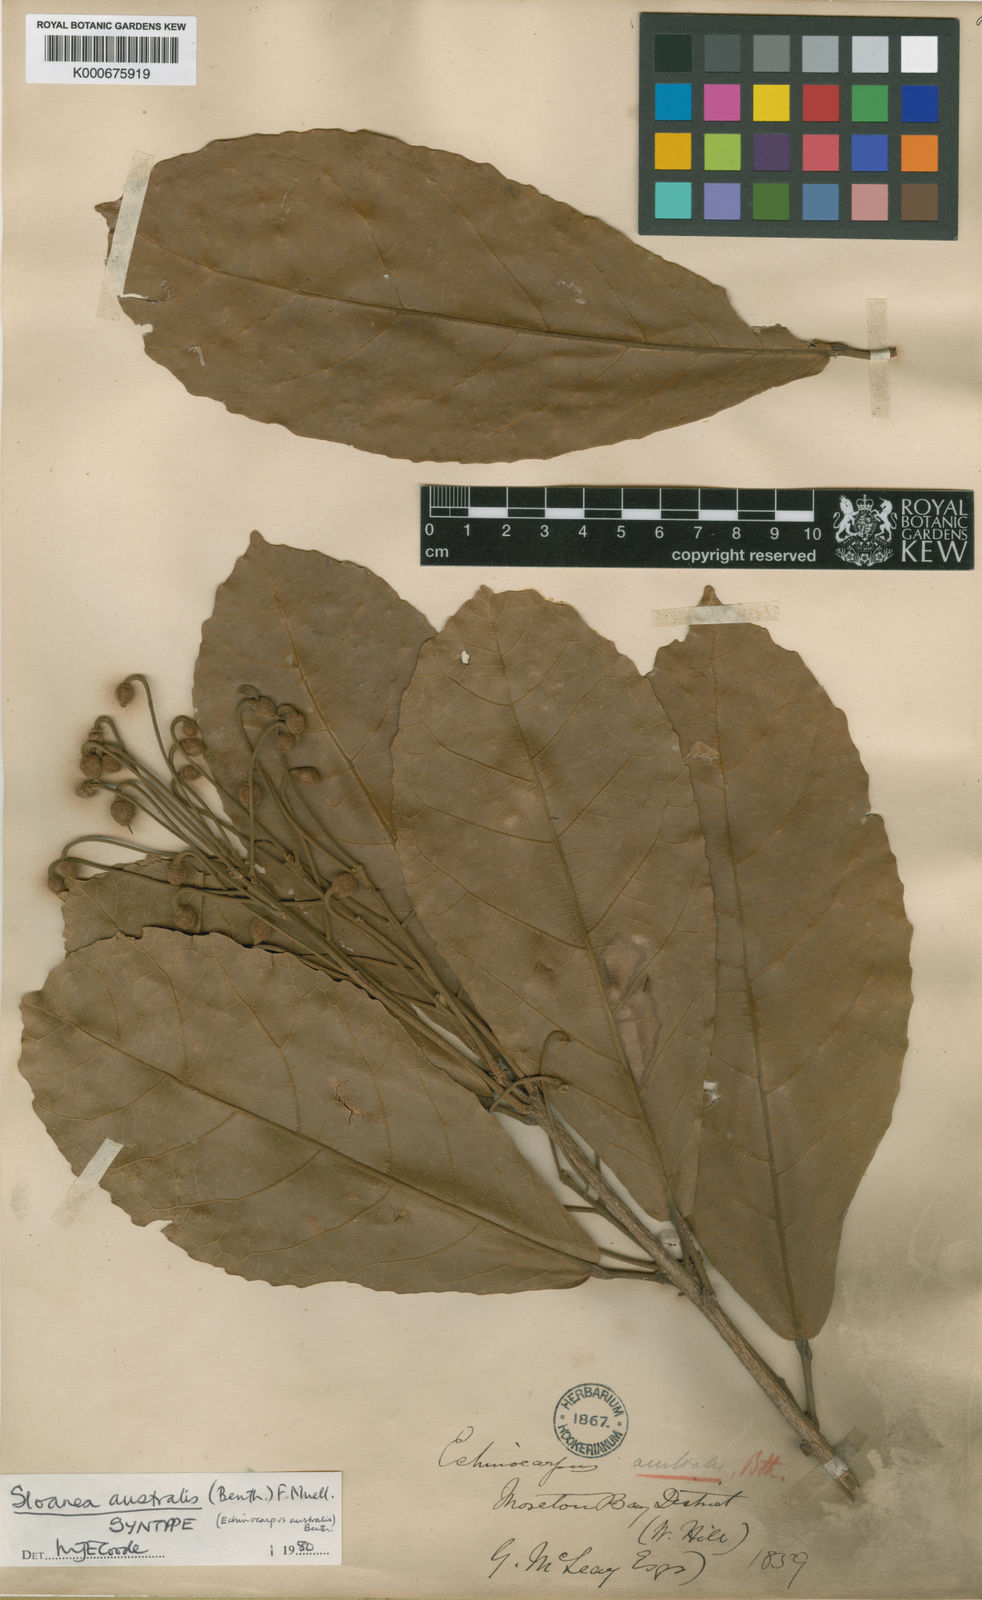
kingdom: Plantae
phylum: Tracheophyta
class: Magnoliopsida
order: Oxalidales
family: Elaeocarpaceae
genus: Sloanea
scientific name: Sloanea australis
